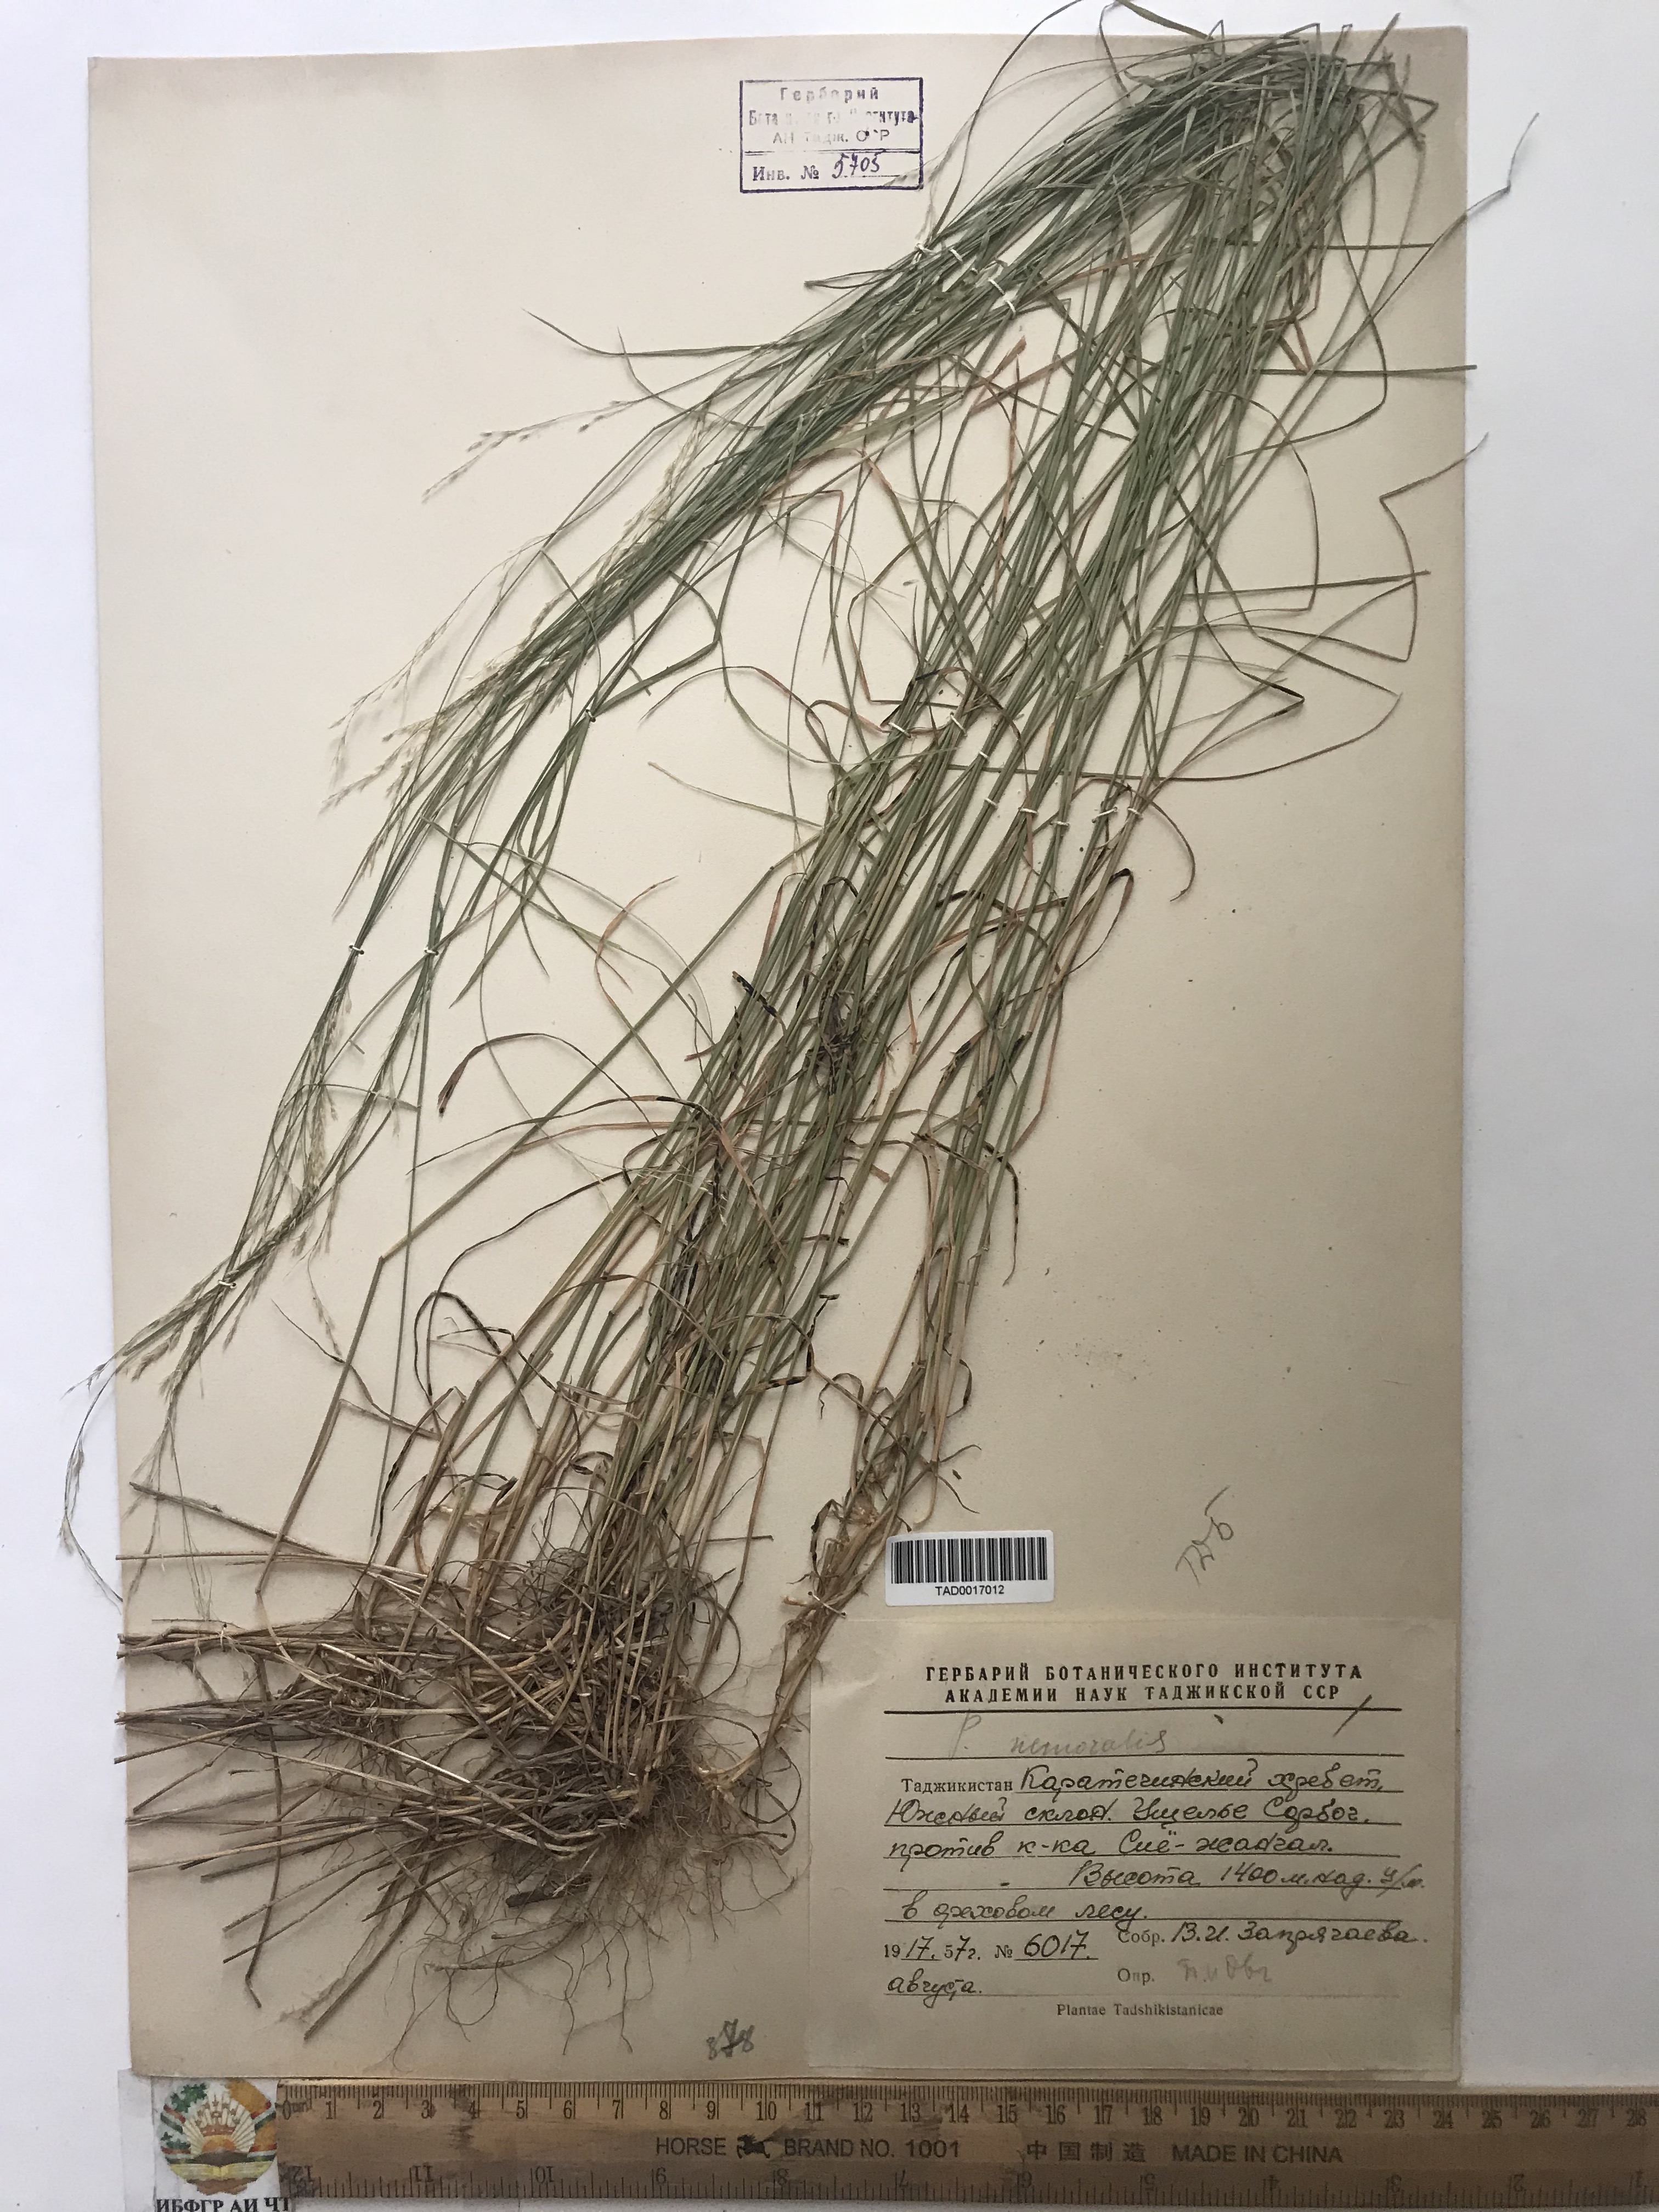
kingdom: Plantae
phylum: Tracheophyta
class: Liliopsida
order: Poales
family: Poaceae
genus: Poa
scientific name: Poa nemoralis
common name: Wood bluegrass
